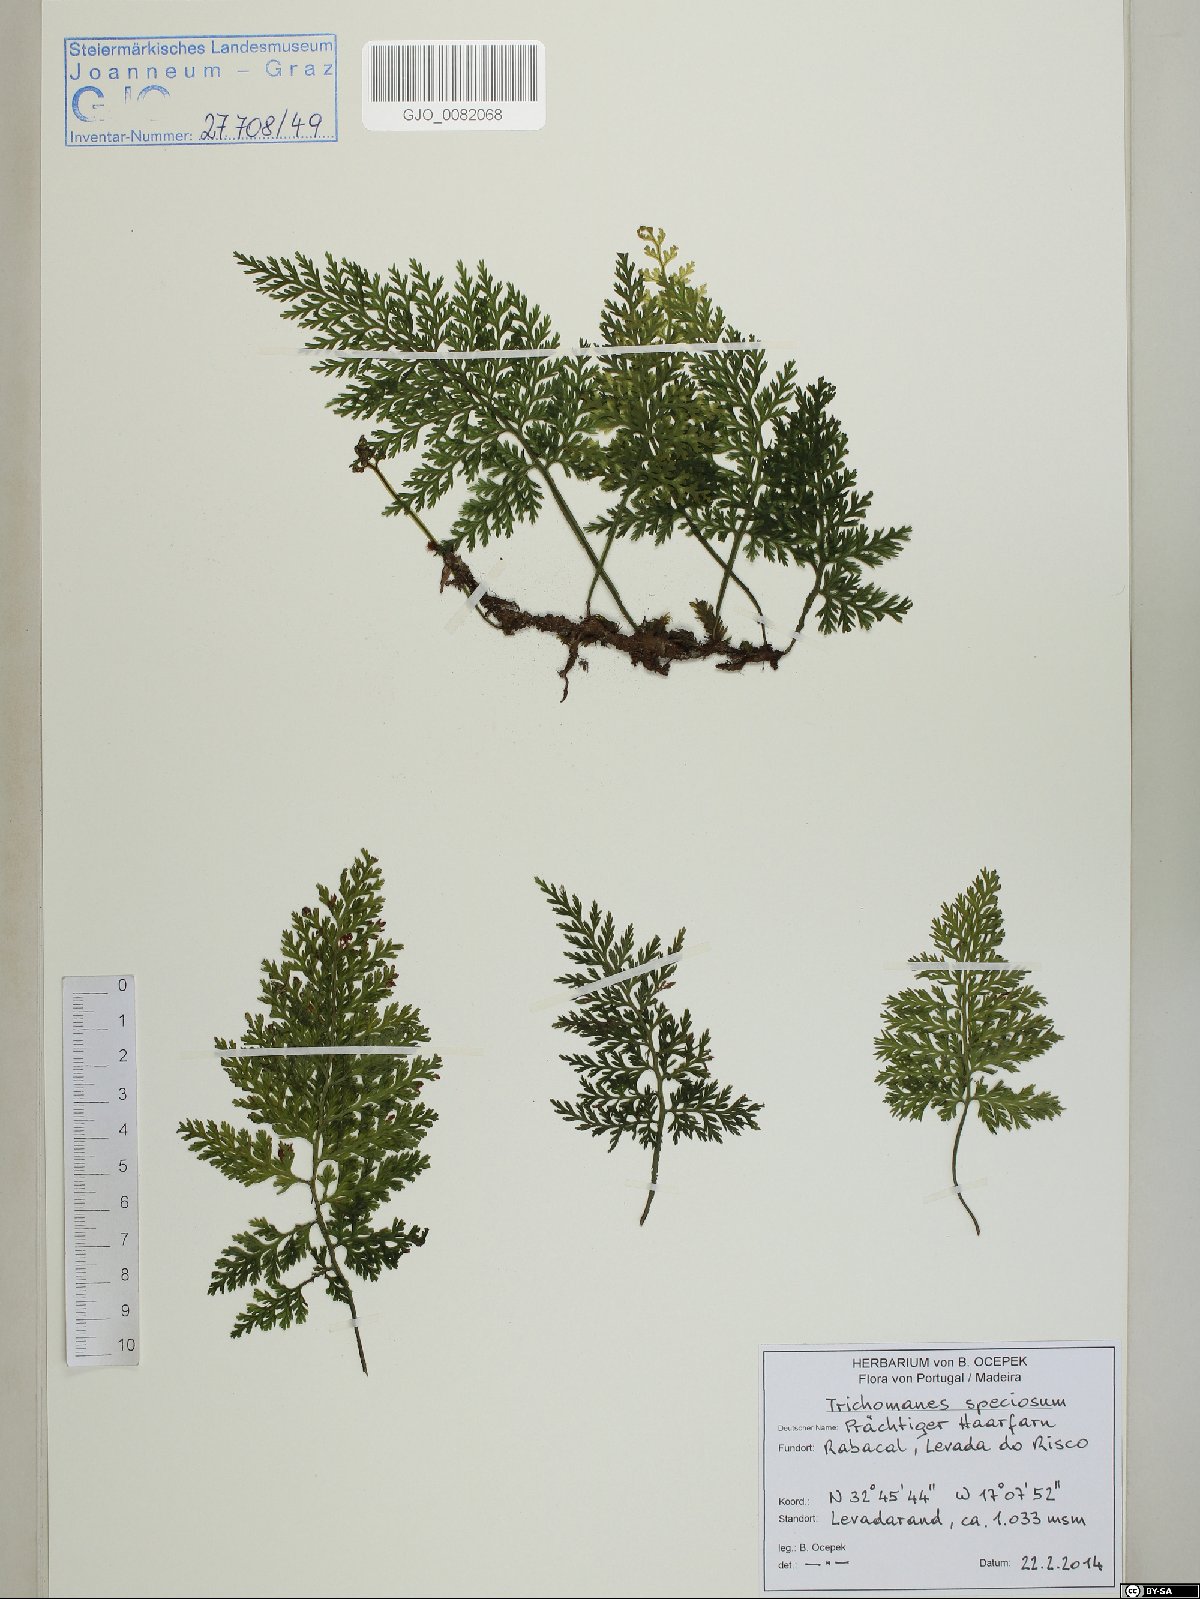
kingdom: Plantae
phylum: Tracheophyta
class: Polypodiopsida
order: Hymenophyllales
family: Hymenophyllaceae
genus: Vandenboschia
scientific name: Vandenboschia speciosa
